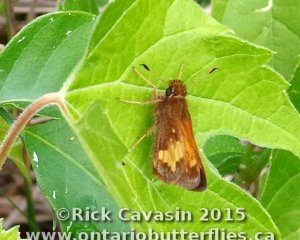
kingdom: Animalia
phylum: Arthropoda
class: Insecta
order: Lepidoptera
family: Hesperiidae
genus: Lon
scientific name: Lon hobomok
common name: Hobomok Skipper
